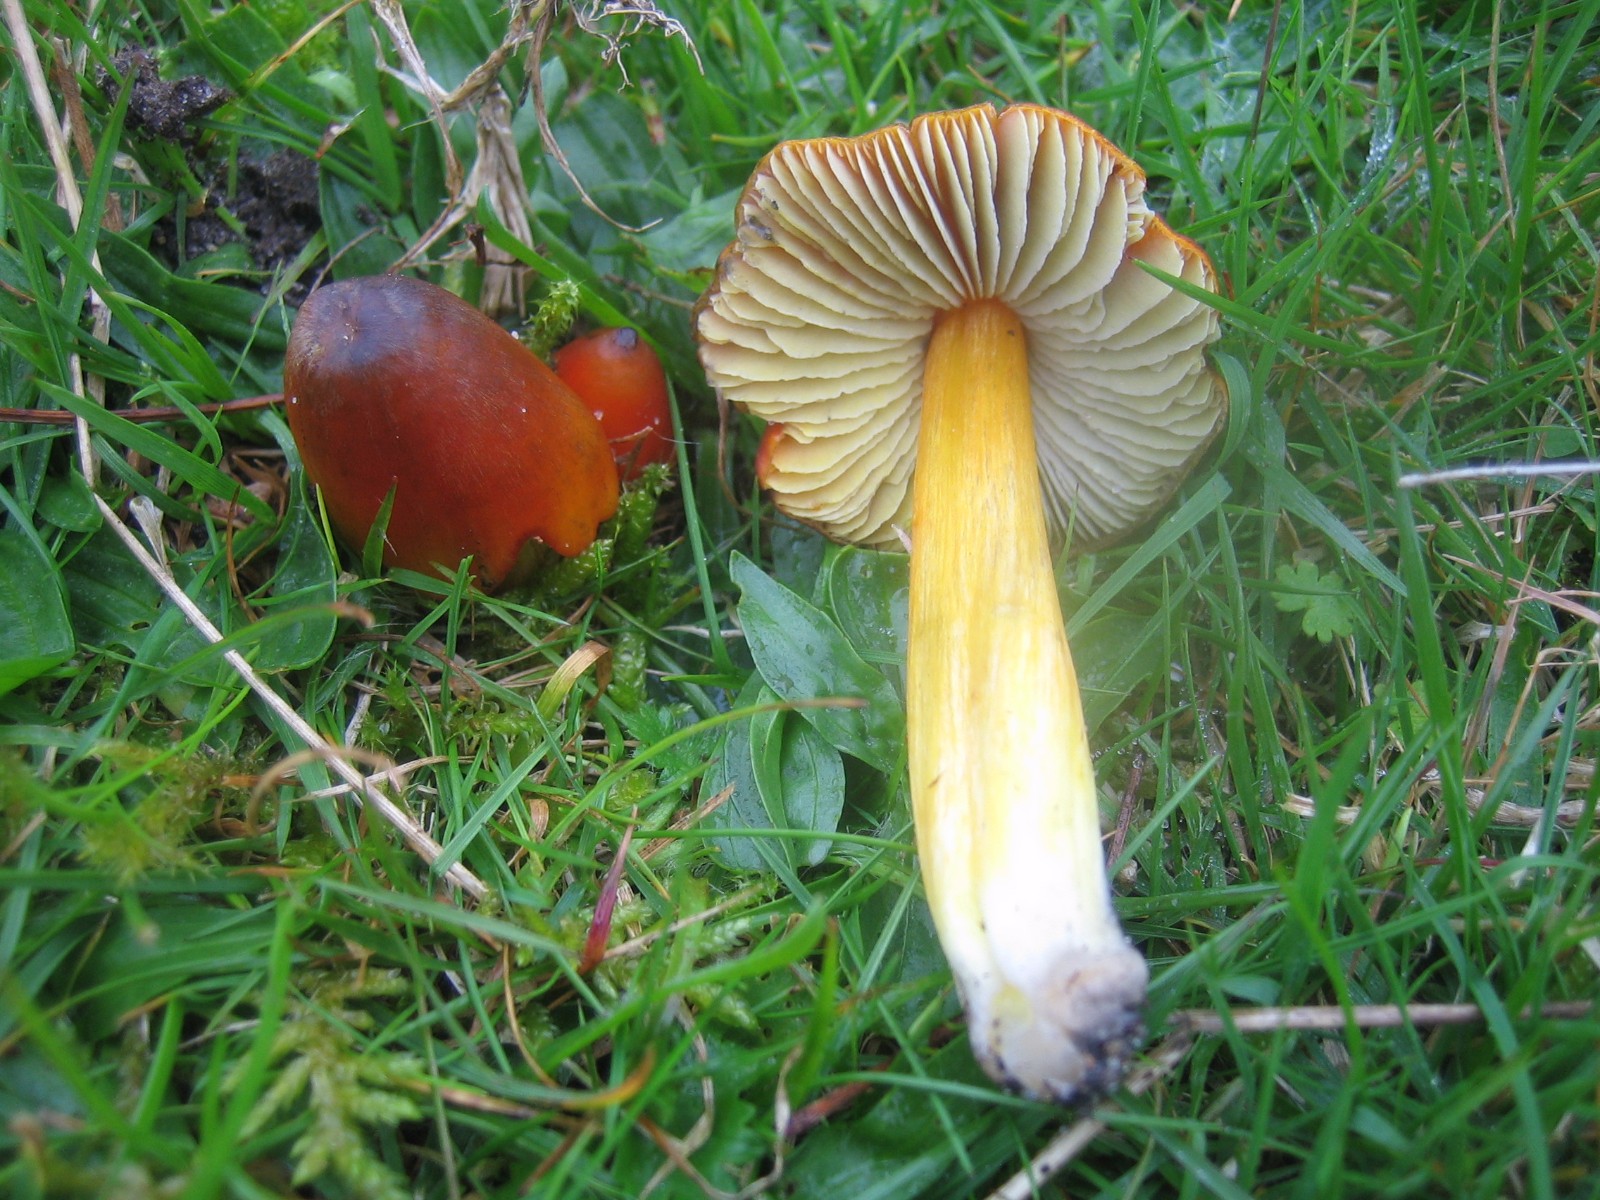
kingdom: Fungi
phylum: Basidiomycota
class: Agaricomycetes
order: Agaricales
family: Hygrophoraceae
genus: Hygrocybe
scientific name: Hygrocybe conica
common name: kegle-vokshat
